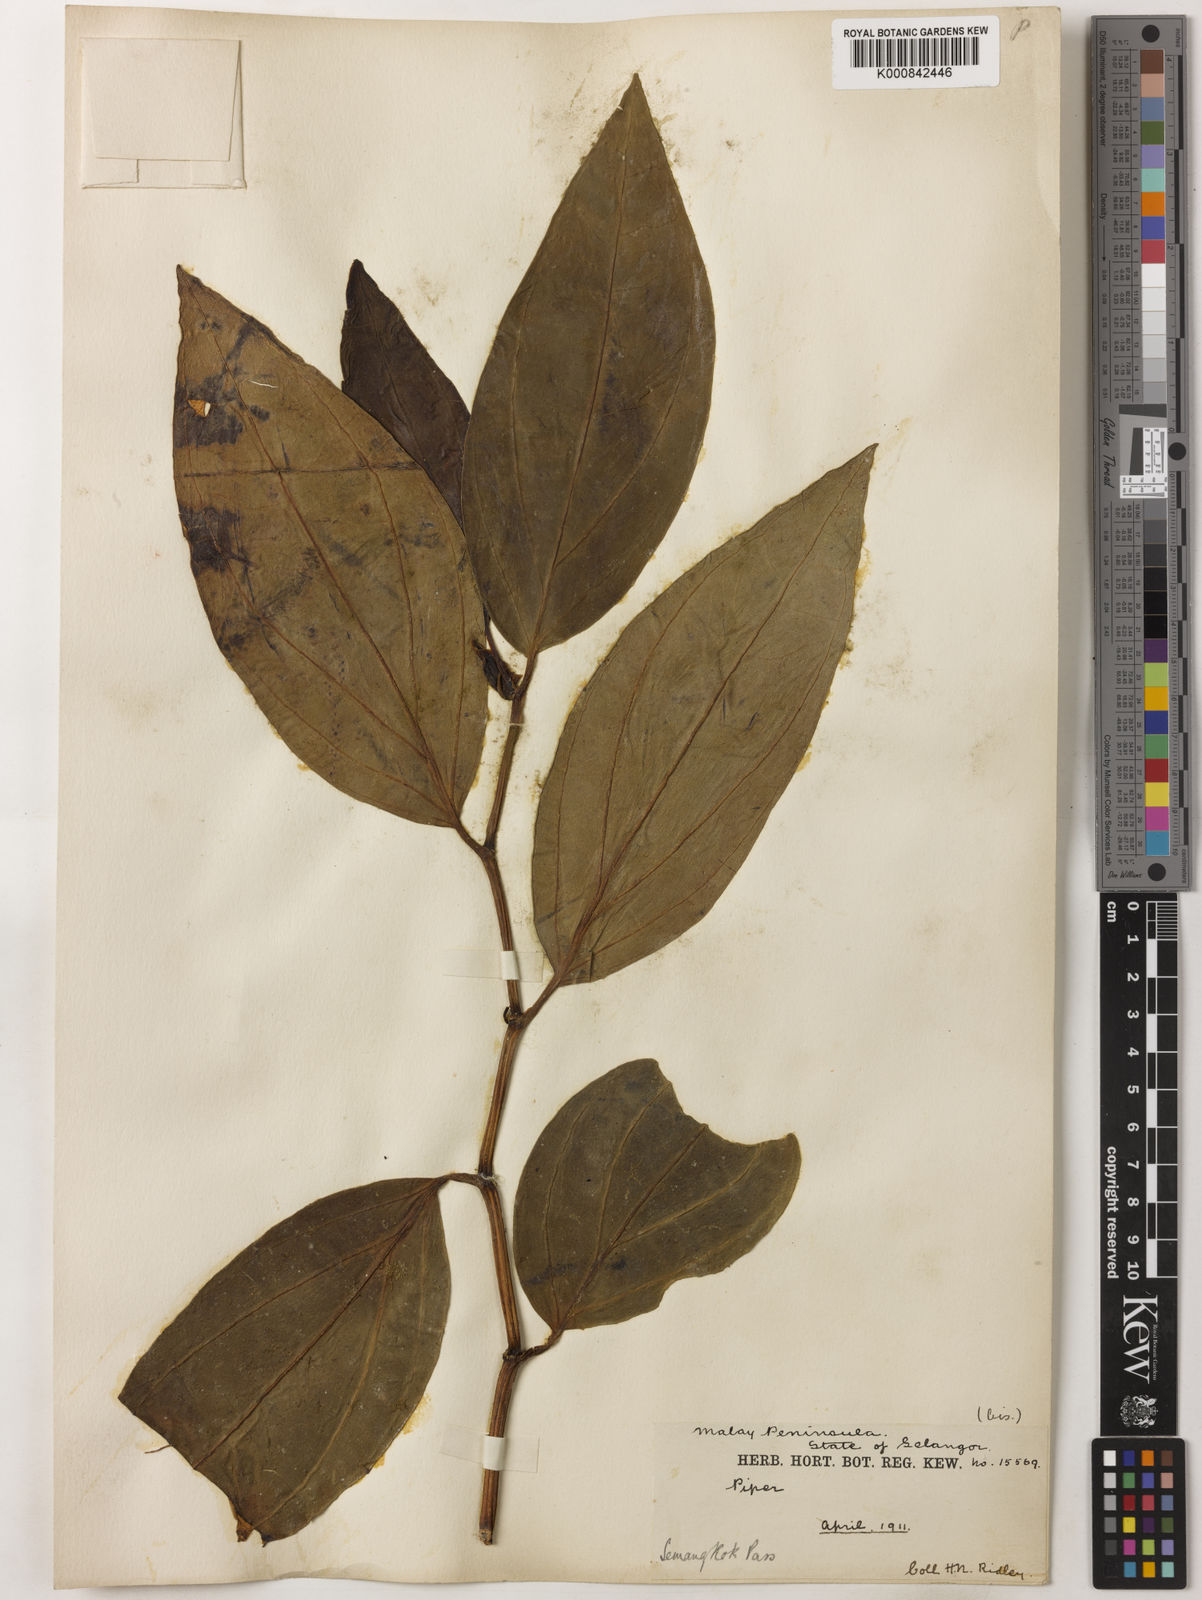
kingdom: Plantae
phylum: Tracheophyta
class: Magnoliopsida
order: Piperales
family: Piperaceae
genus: Piper
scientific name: Piper quinqueangulatum
